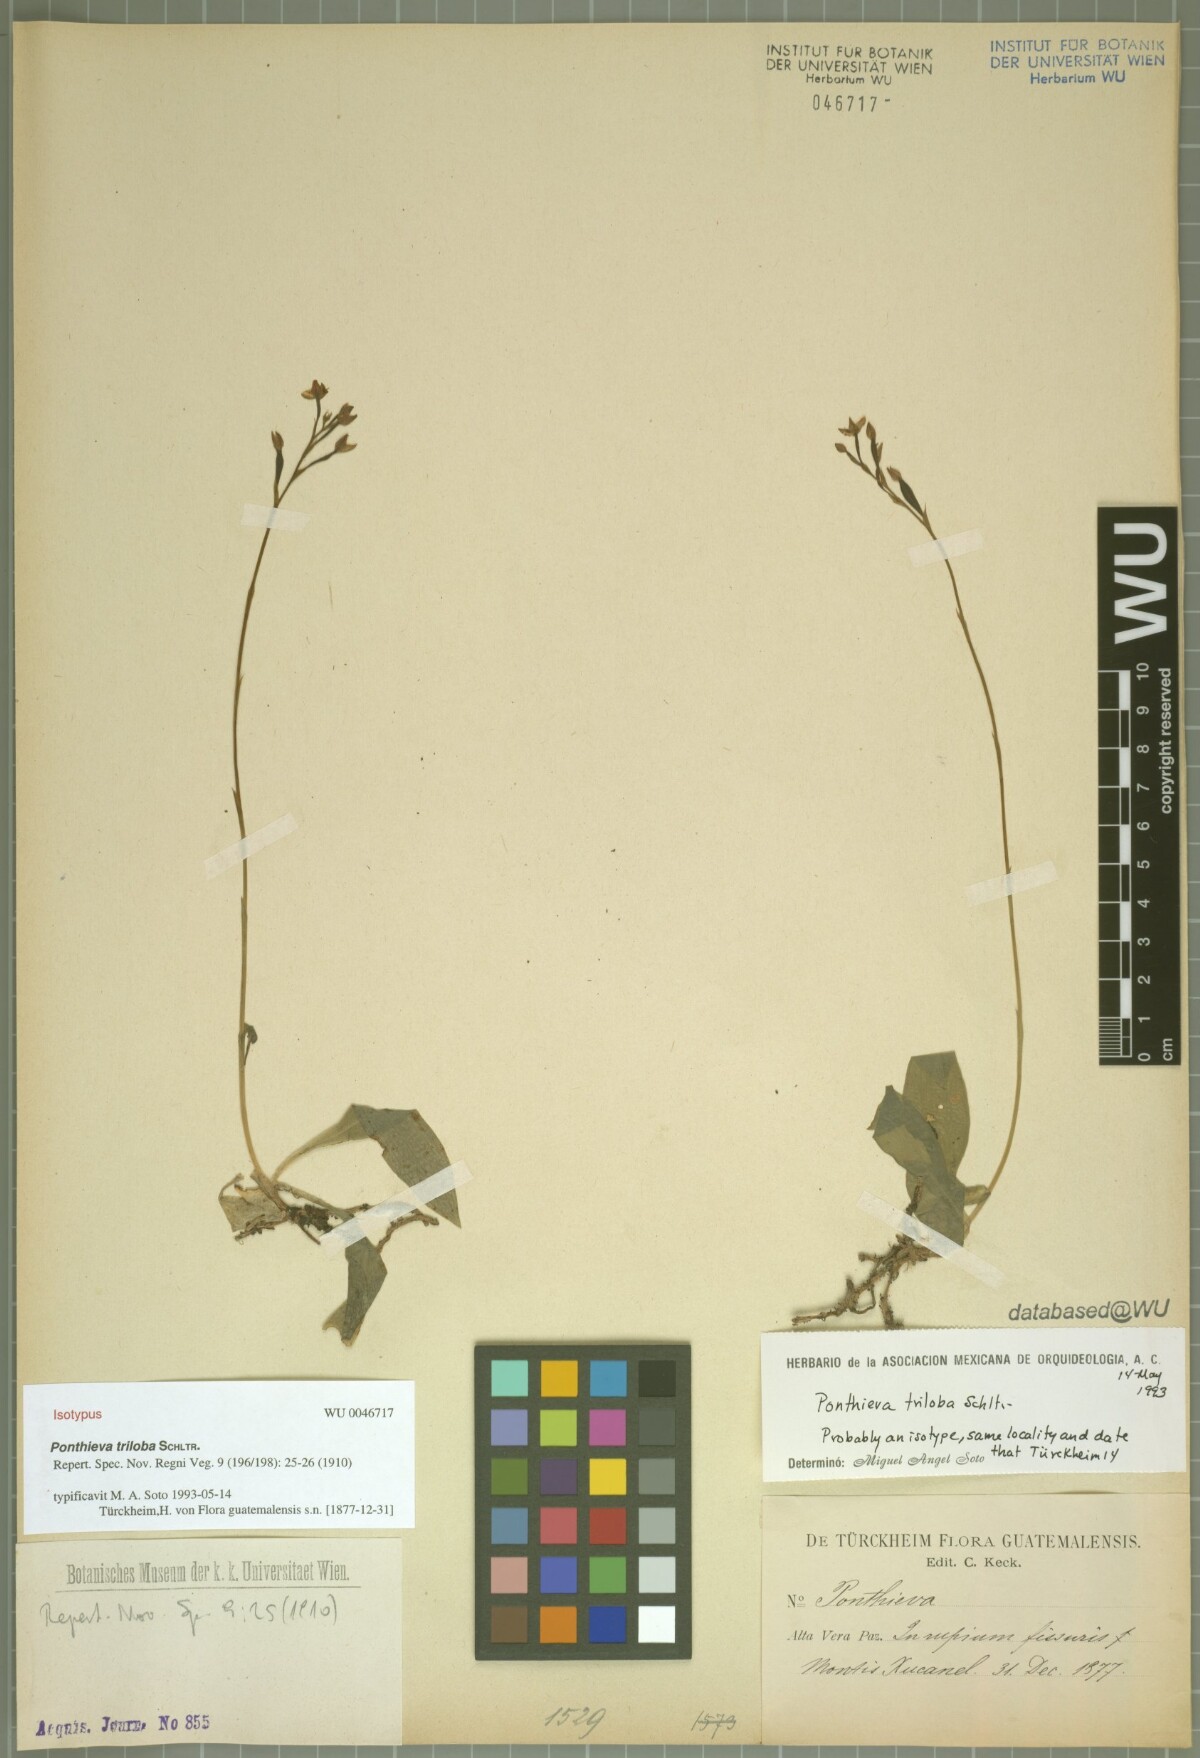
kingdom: Plantae
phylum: Tracheophyta
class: Liliopsida
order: Asparagales
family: Orchidaceae
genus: Ponthieva
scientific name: Ponthieva triloba
